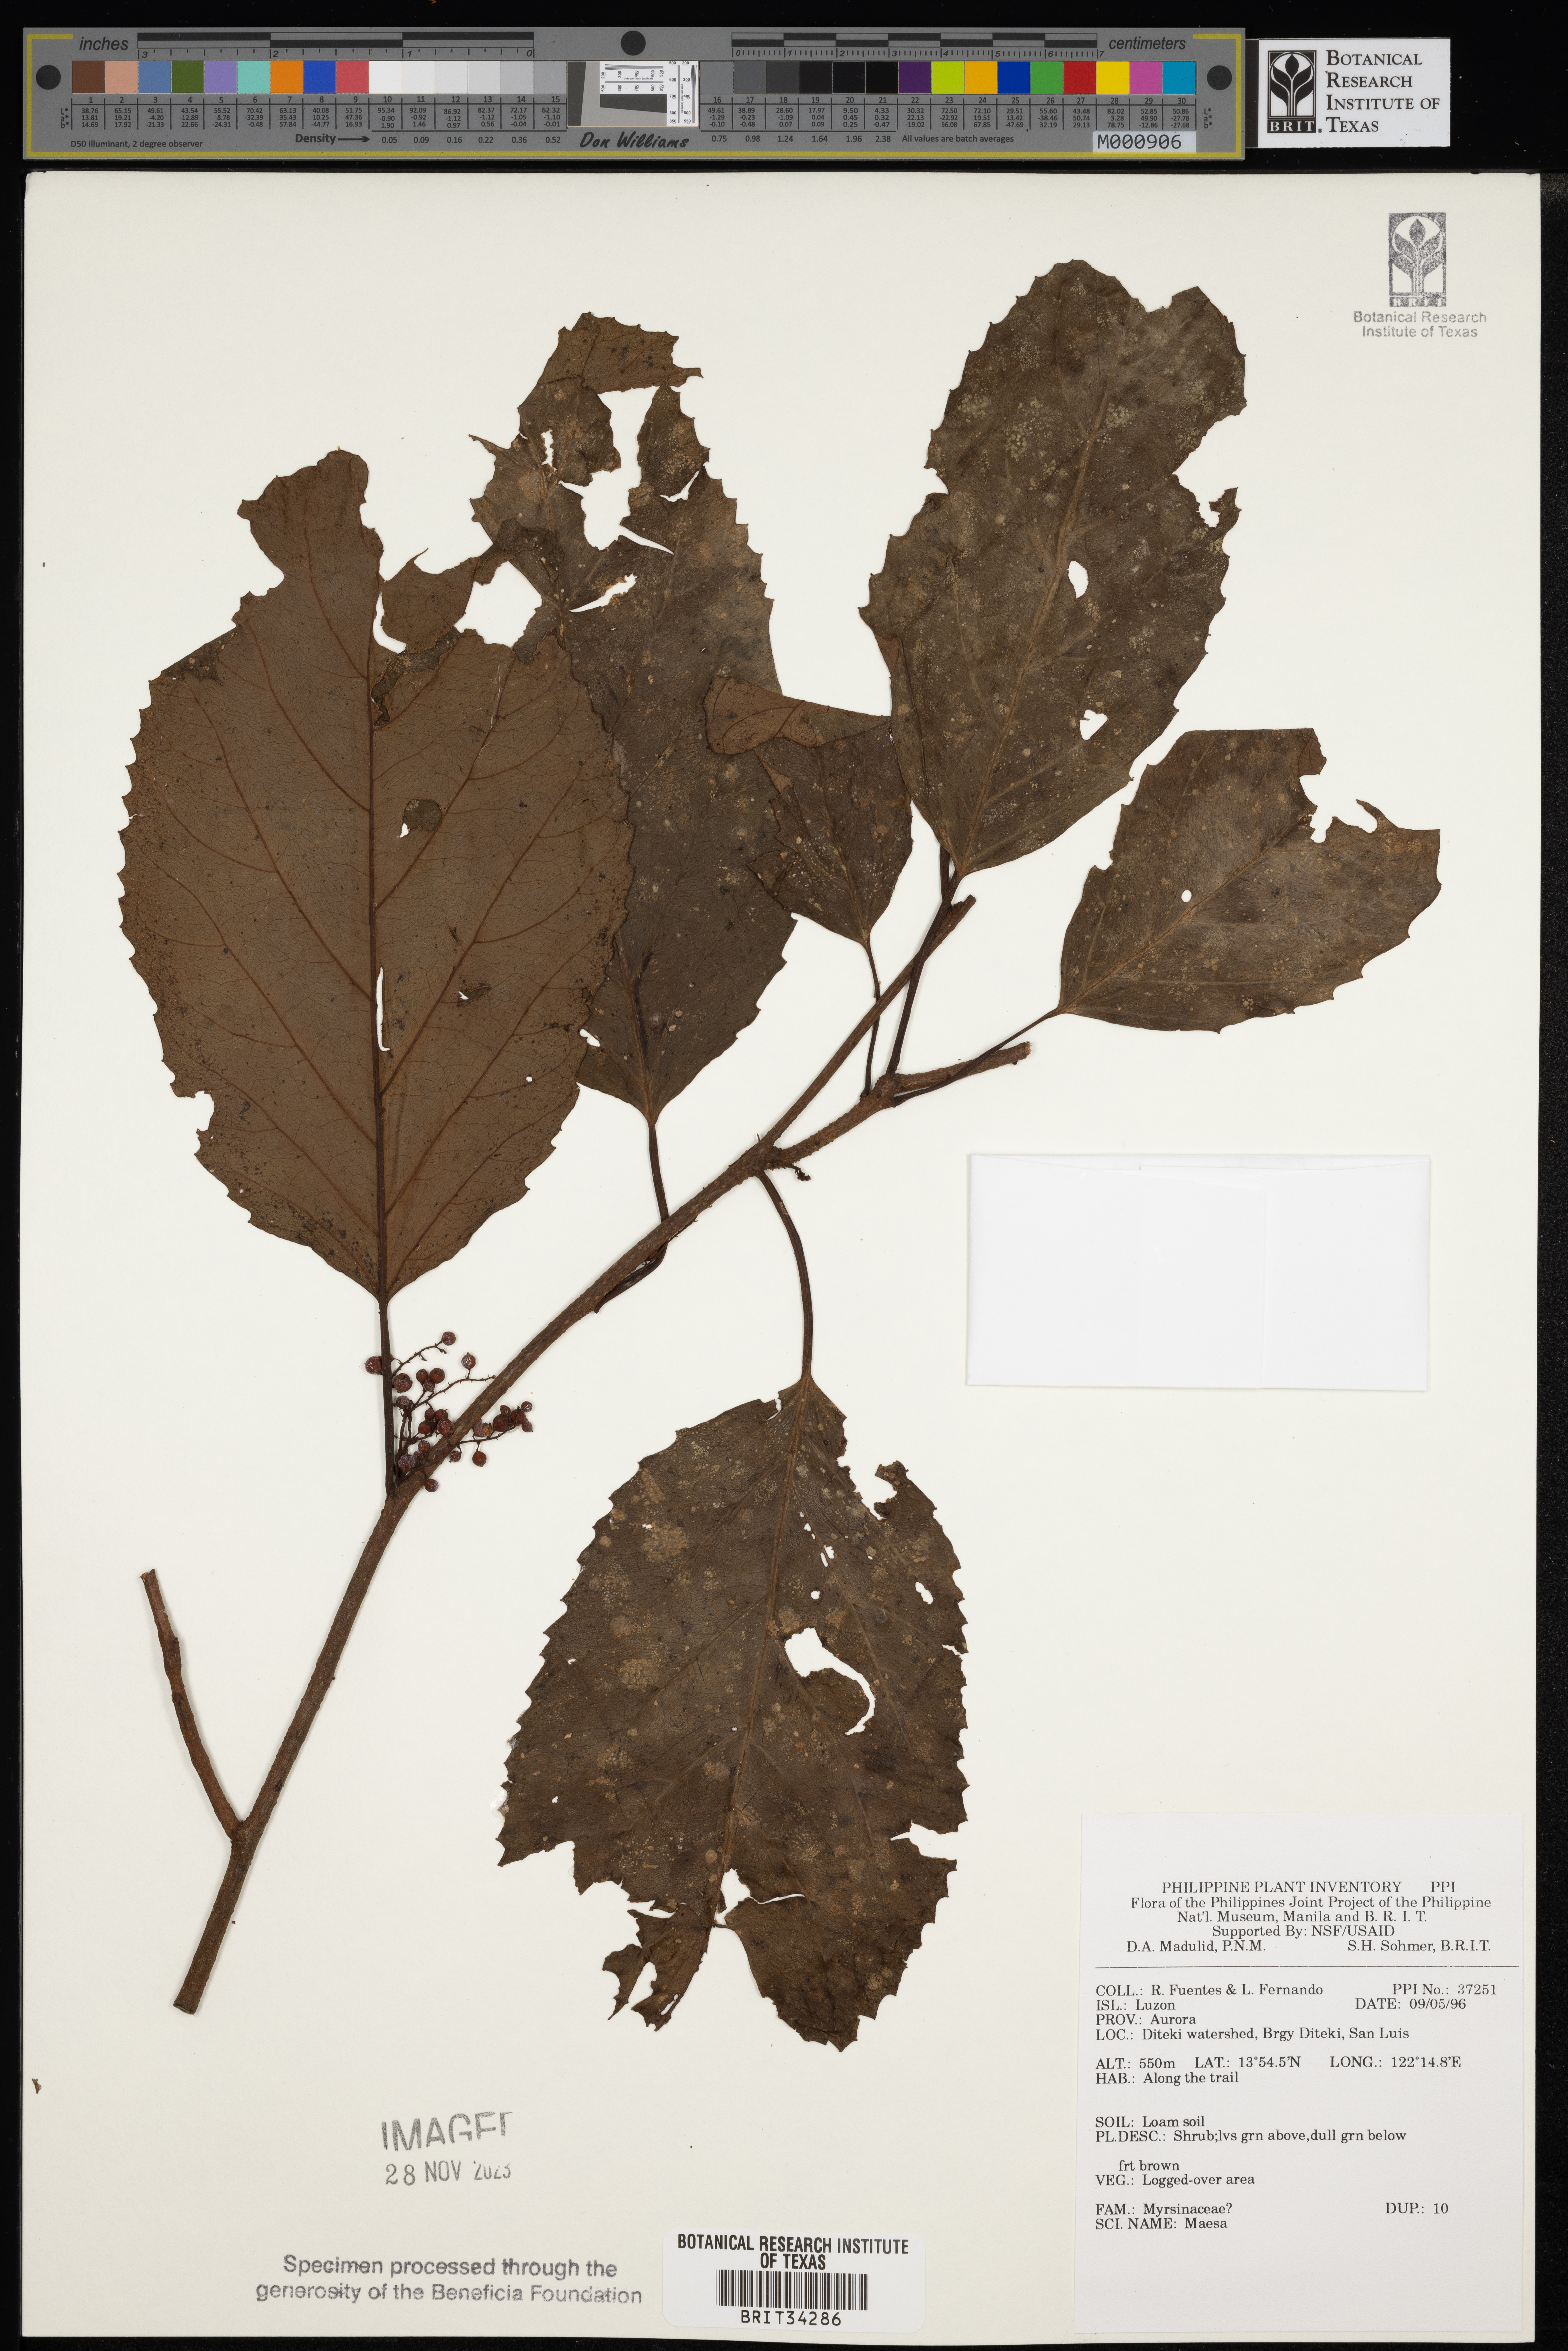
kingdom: Plantae
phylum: Tracheophyta
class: Magnoliopsida
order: Ericales
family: Primulaceae
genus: Maesa
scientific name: Maesa
